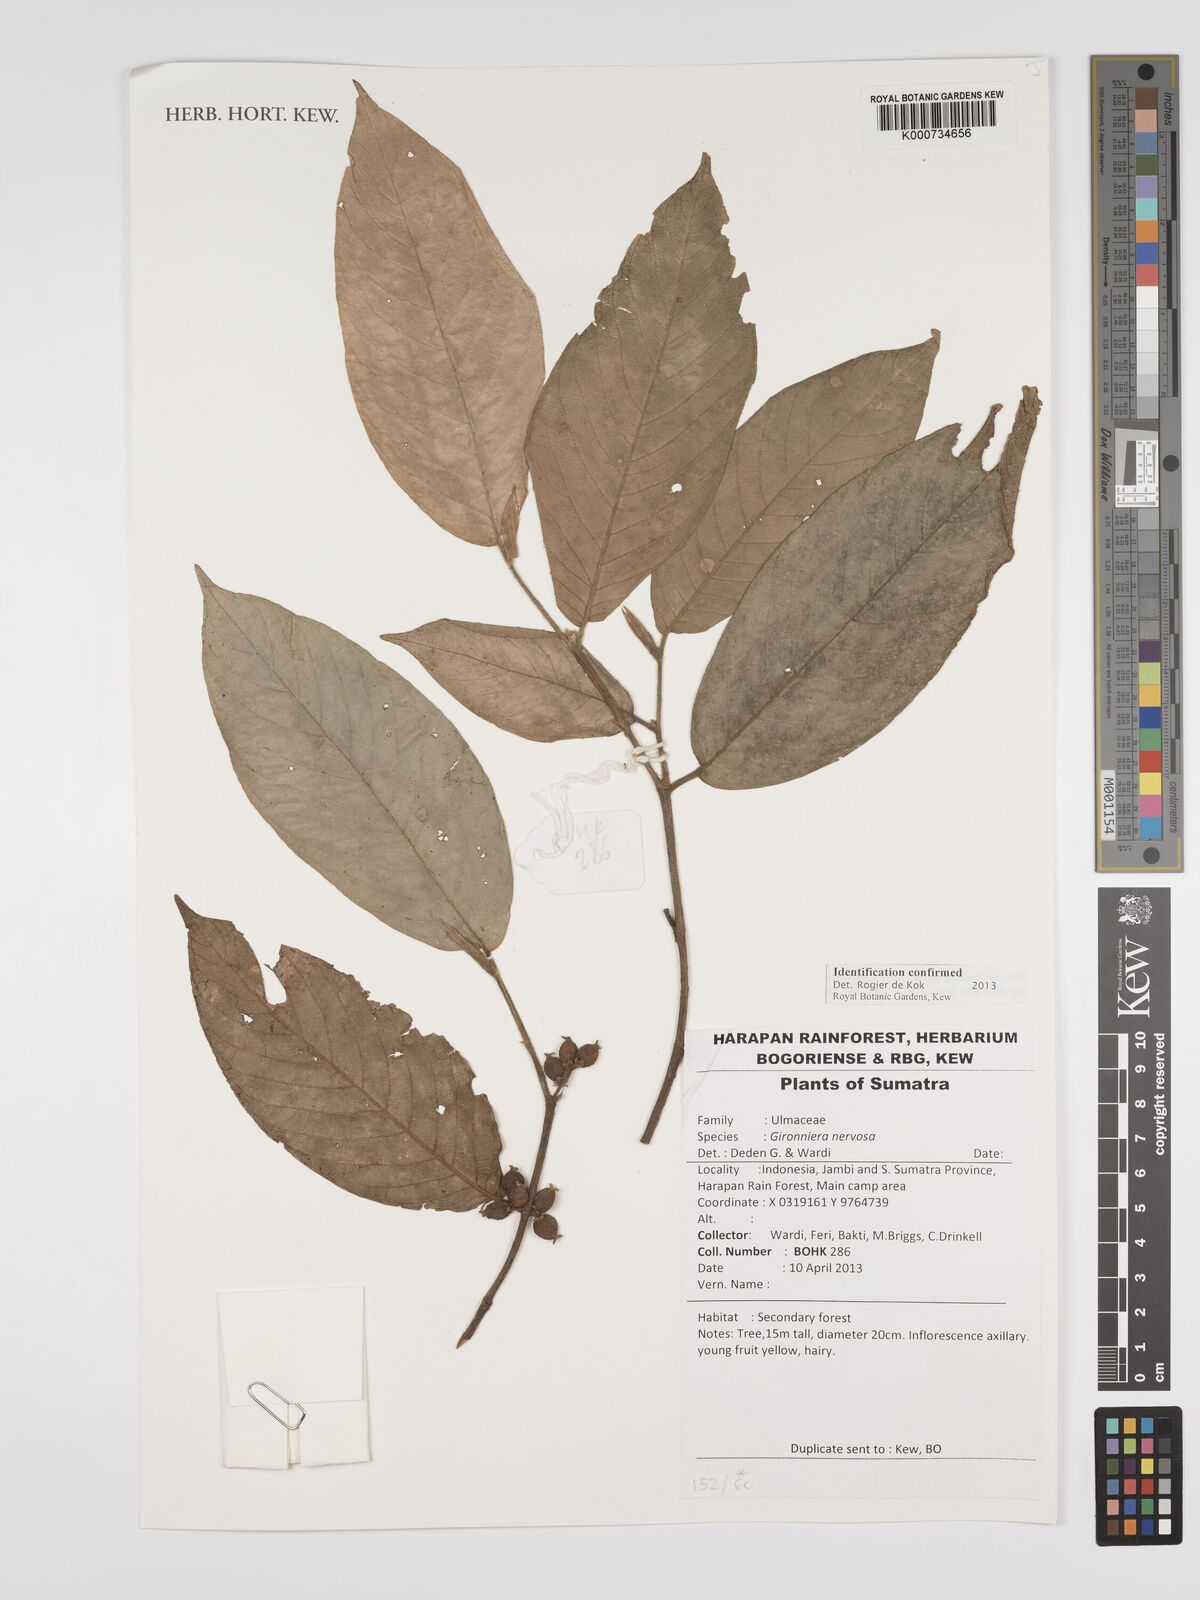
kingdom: Plantae
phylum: Tracheophyta
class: Magnoliopsida
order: Rosales
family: Cannabaceae
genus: Gironniera
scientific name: Gironniera nervosa
